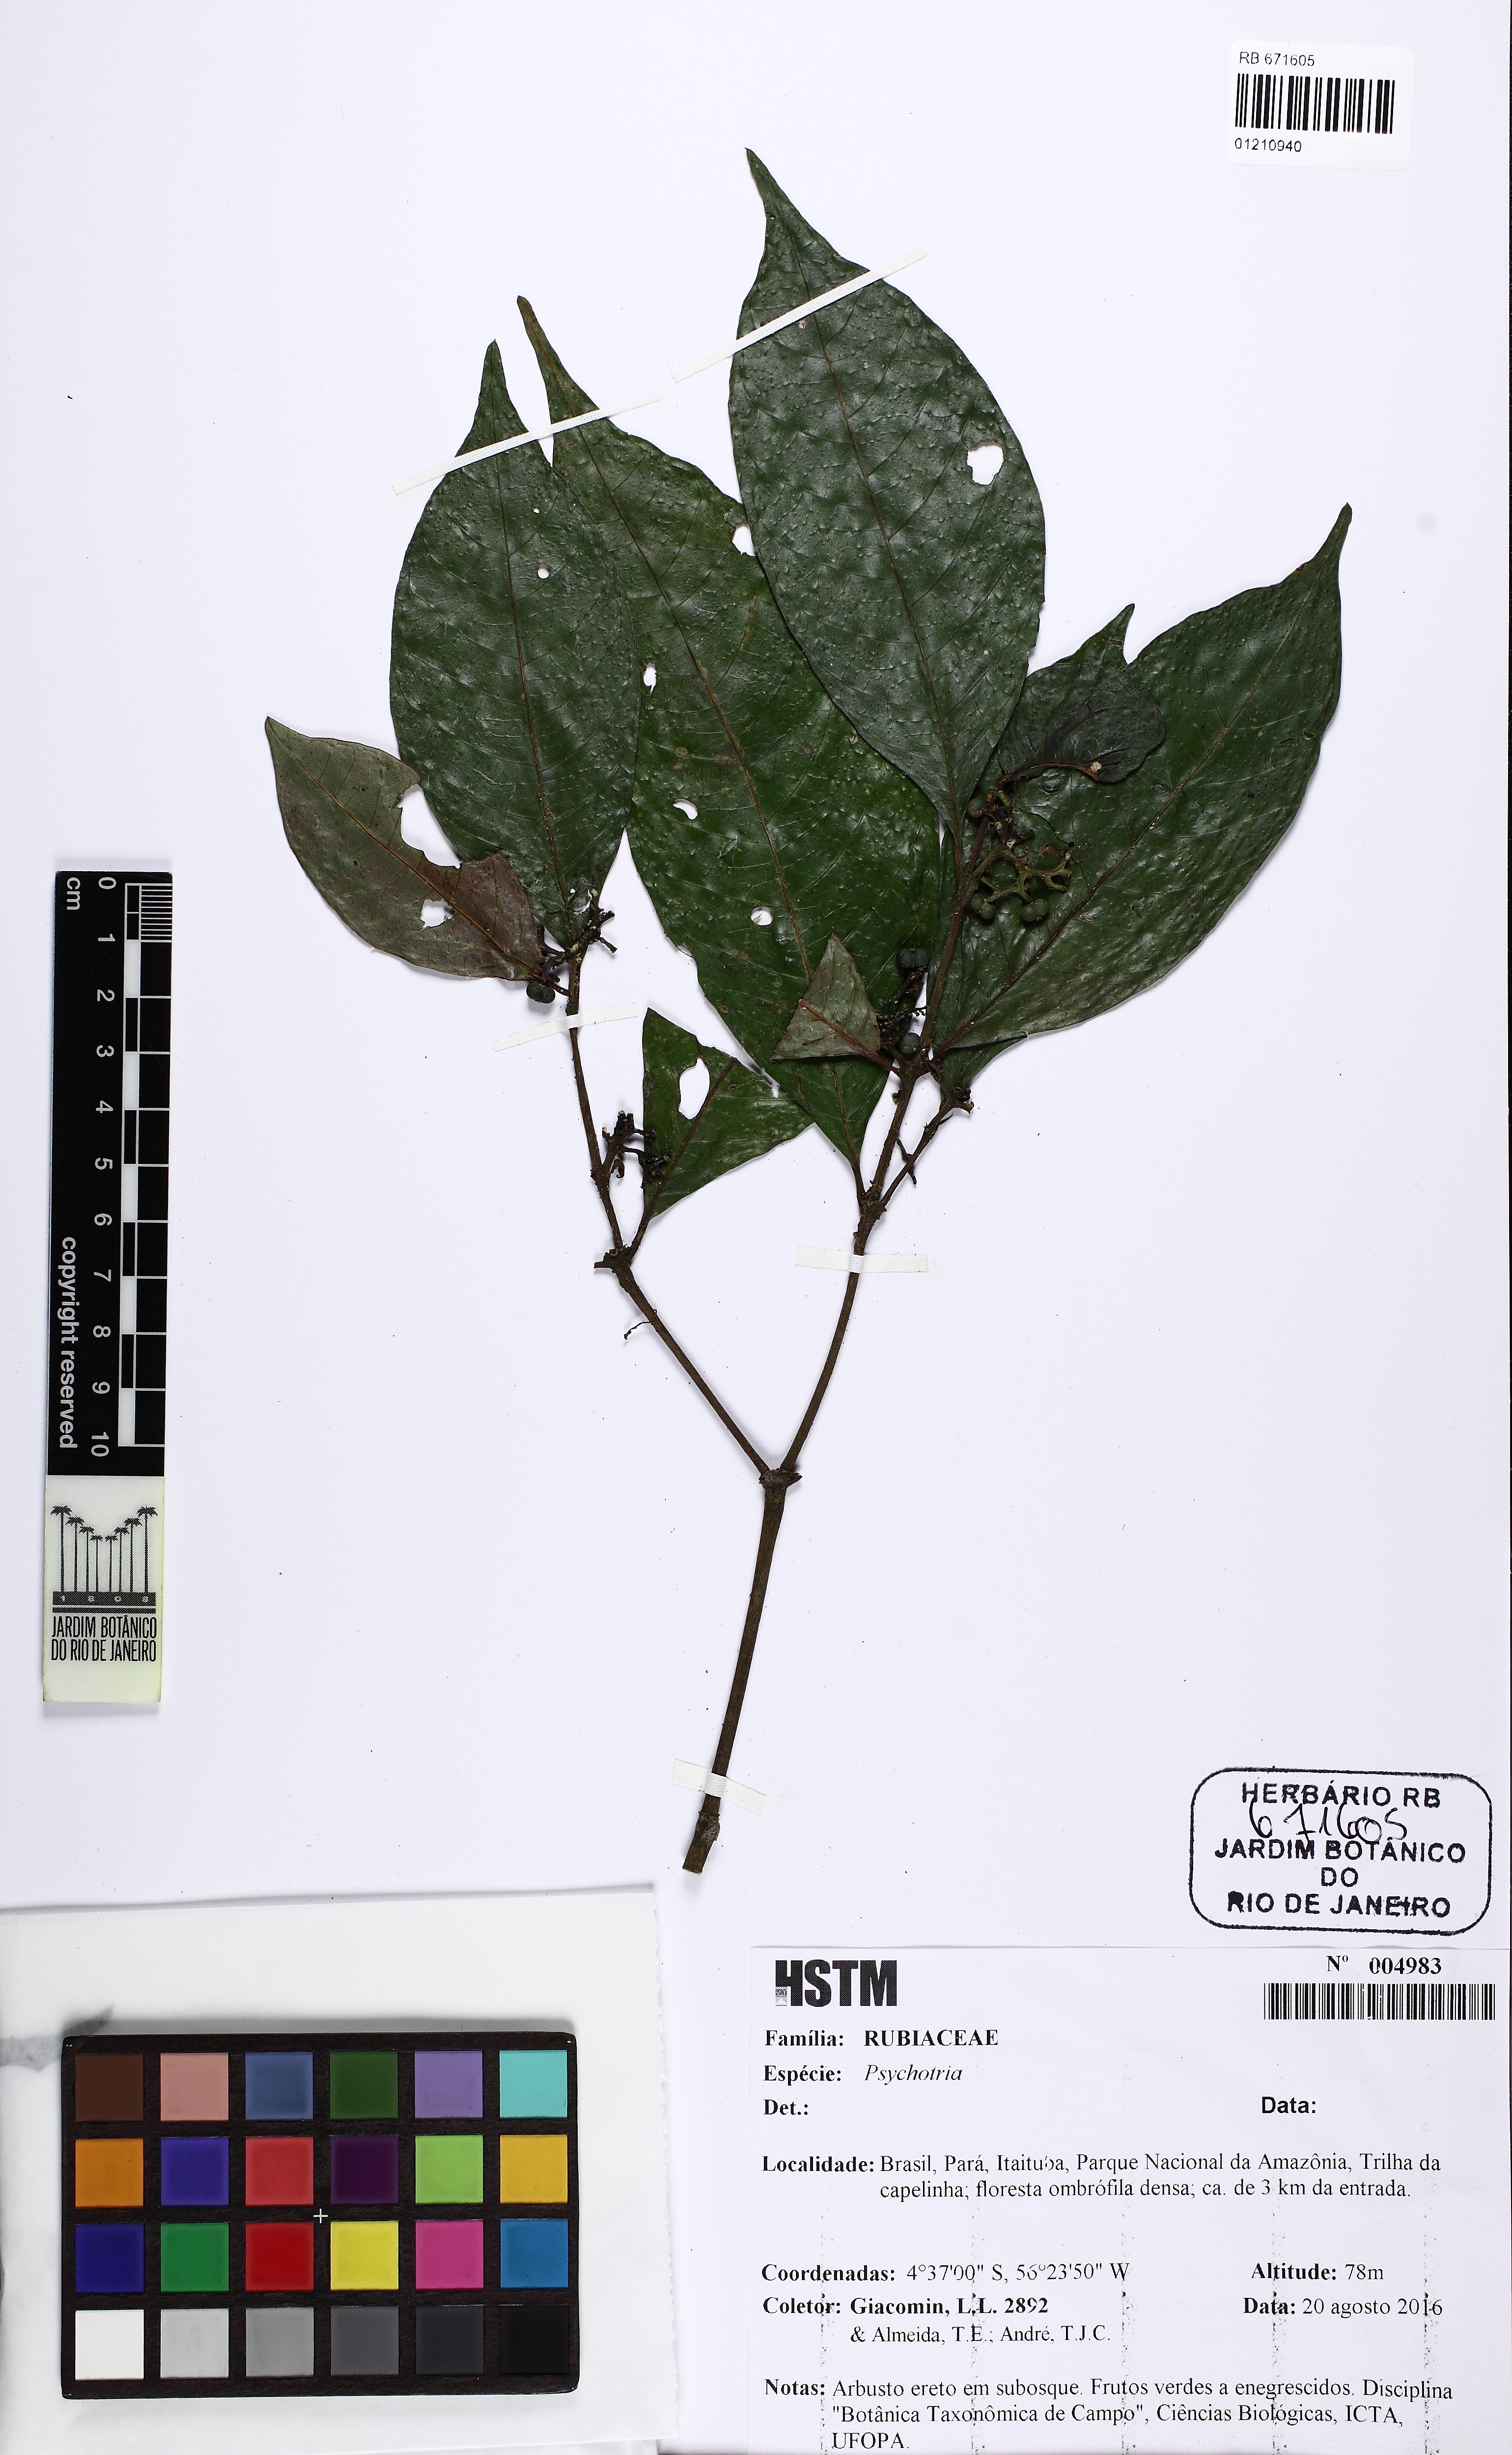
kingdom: Plantae
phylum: Tracheophyta
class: Magnoliopsida
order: Gentianales
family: Rubiaceae
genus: Psychotria
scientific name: Psychotria
